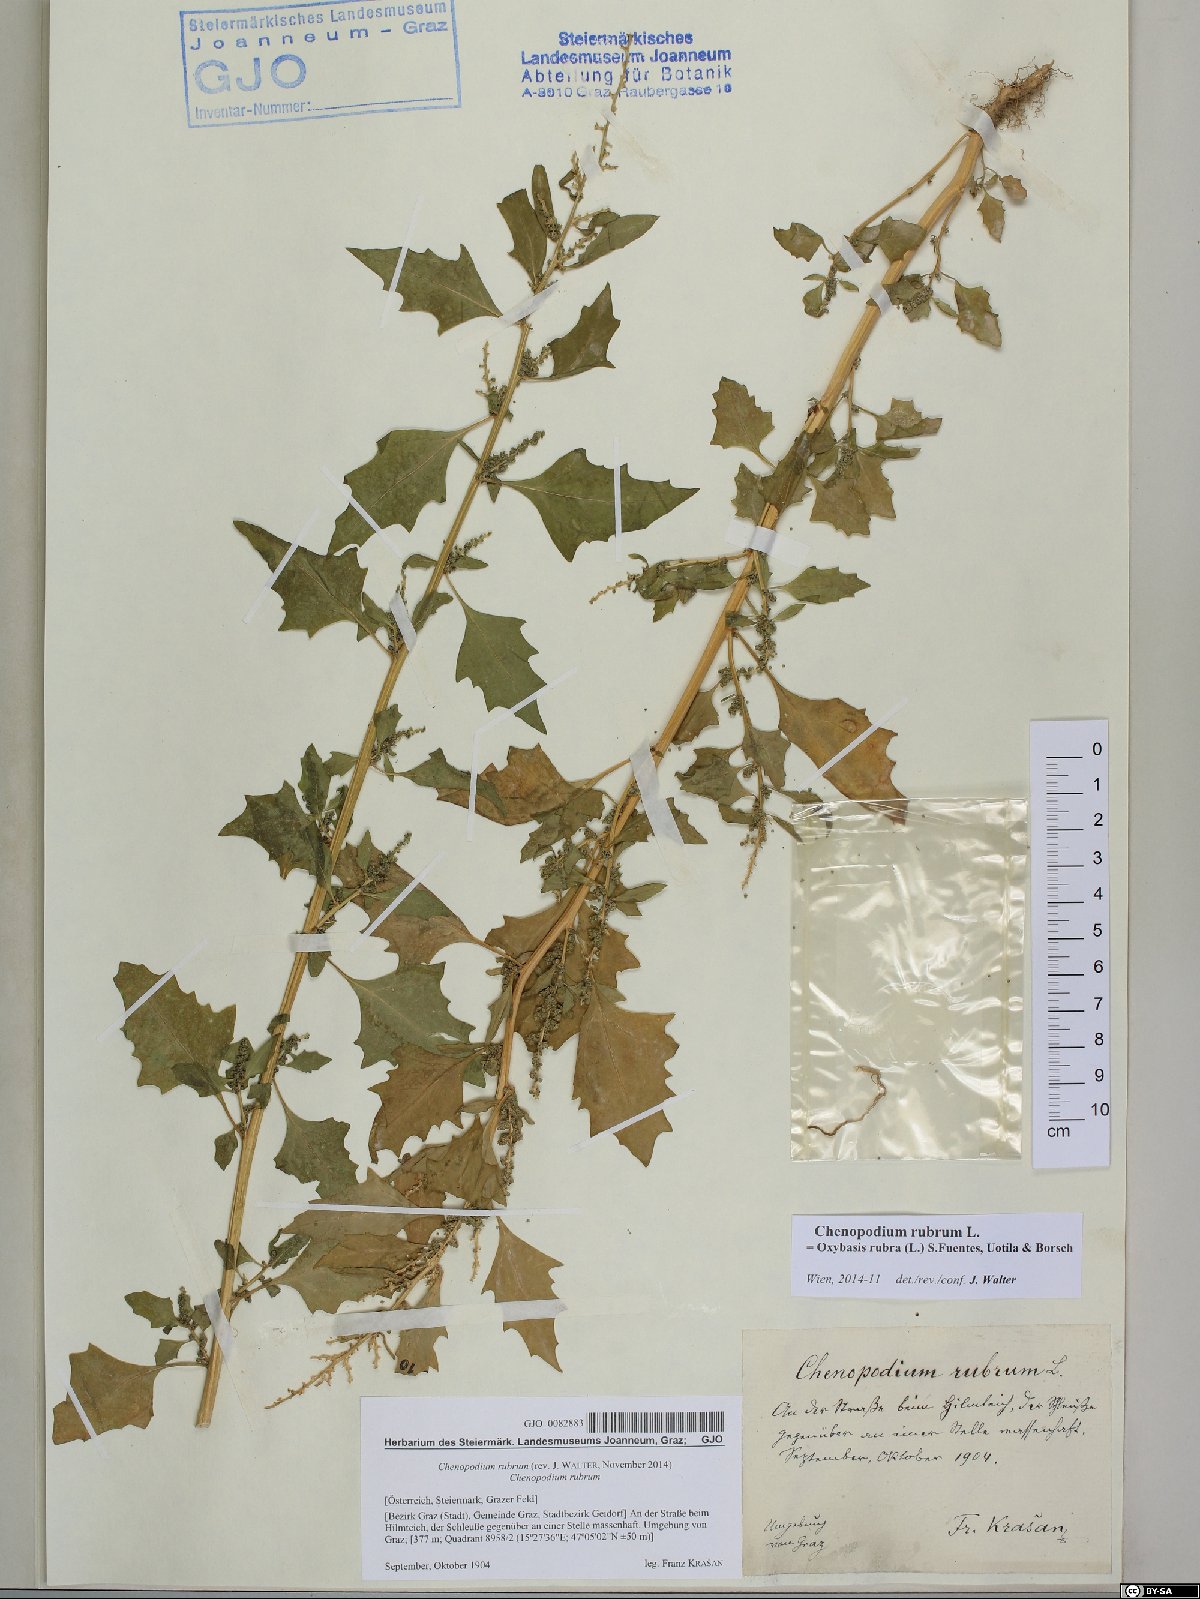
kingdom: Plantae
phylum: Tracheophyta
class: Magnoliopsida
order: Caryophyllales
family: Amaranthaceae
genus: Oxybasis
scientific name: Oxybasis rubra
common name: Red goosefoot
